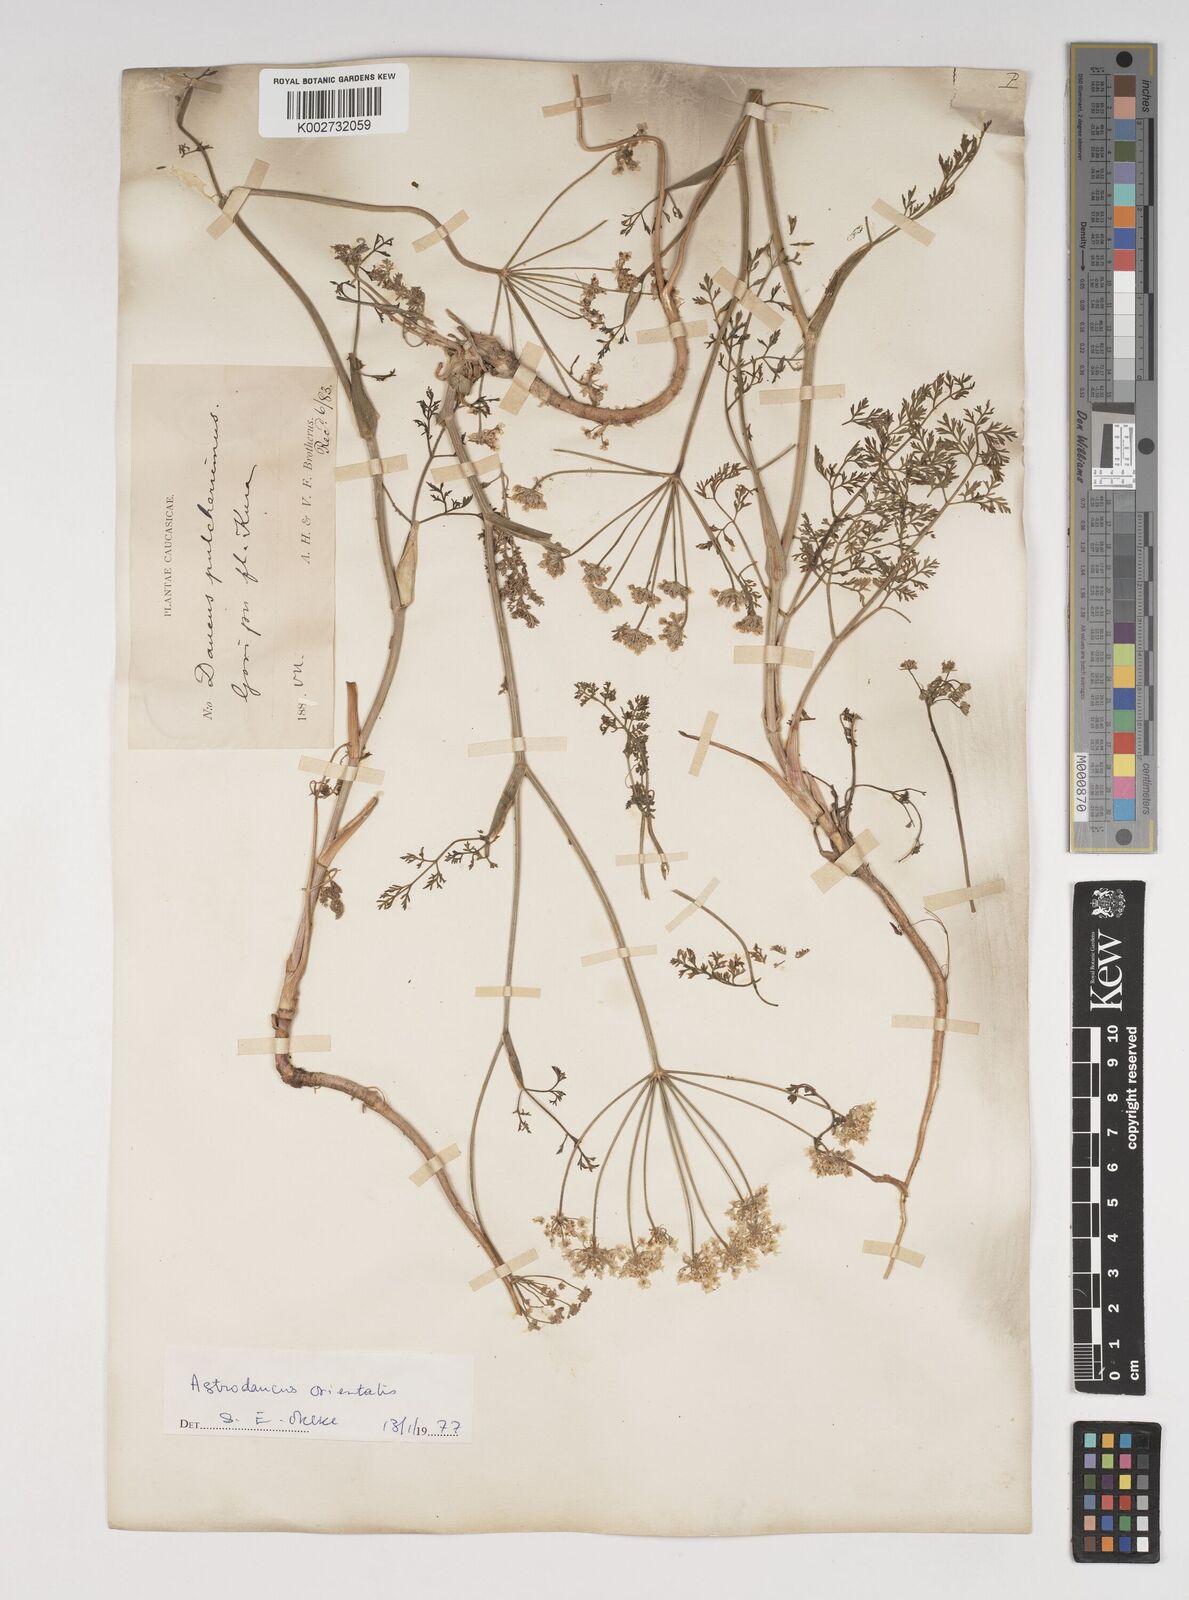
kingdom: Plantae
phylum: Tracheophyta
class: Magnoliopsida
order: Apiales
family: Apiaceae
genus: Astrodaucus
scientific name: Astrodaucus orientalis
